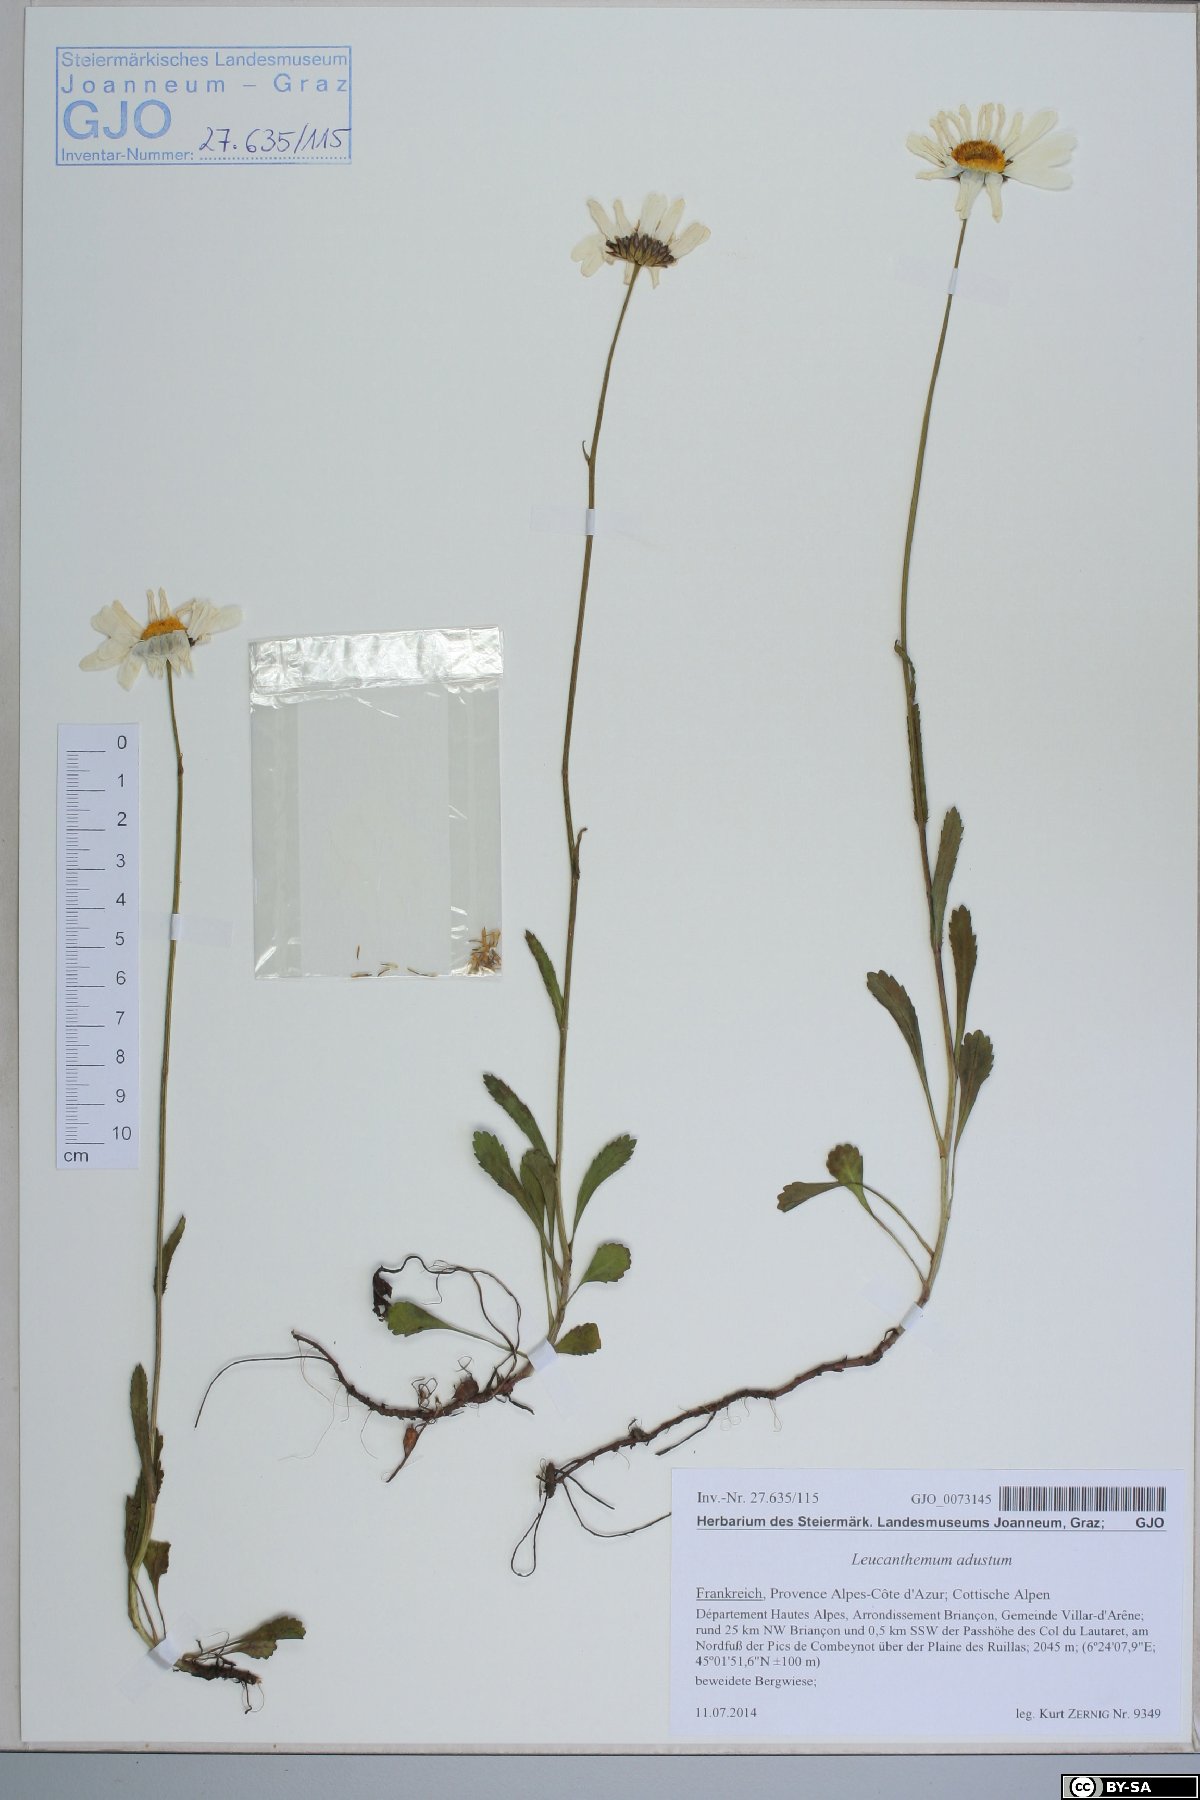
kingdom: Plantae
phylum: Tracheophyta
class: Magnoliopsida
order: Asterales
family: Asteraceae
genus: Leucanthemum
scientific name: Leucanthemum adustum
